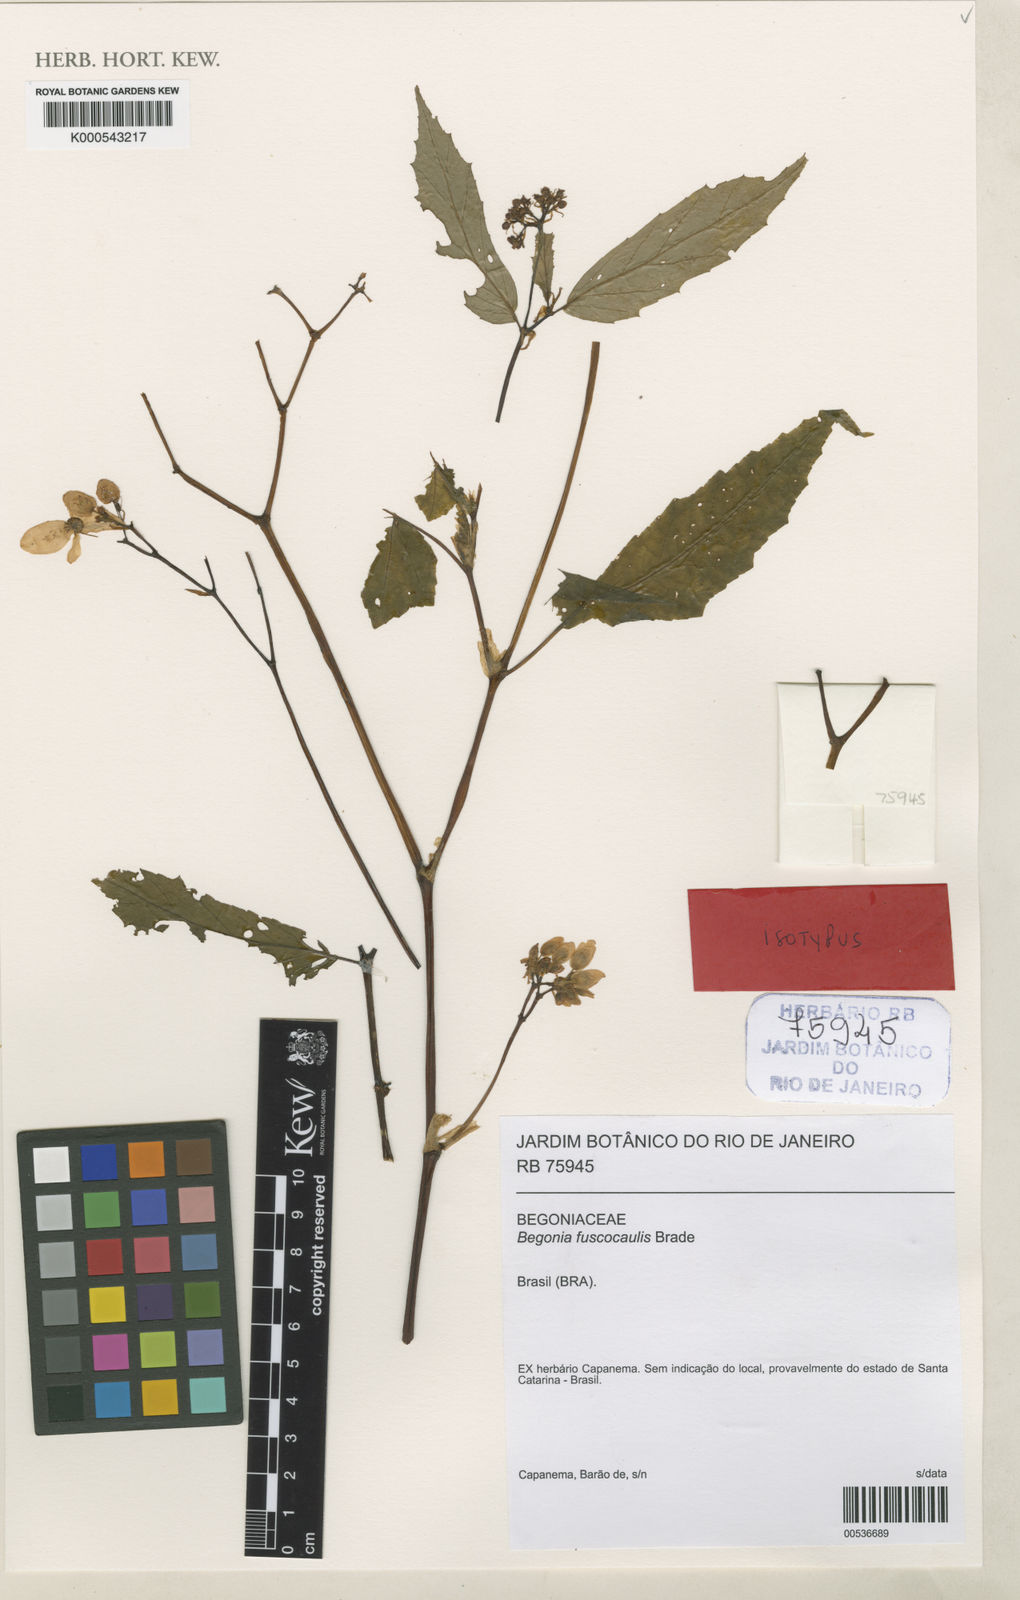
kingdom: Plantae
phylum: Tracheophyta
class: Magnoliopsida
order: Cucurbitales
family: Begoniaceae
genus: Begonia
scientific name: Begonia fuscocaulis
